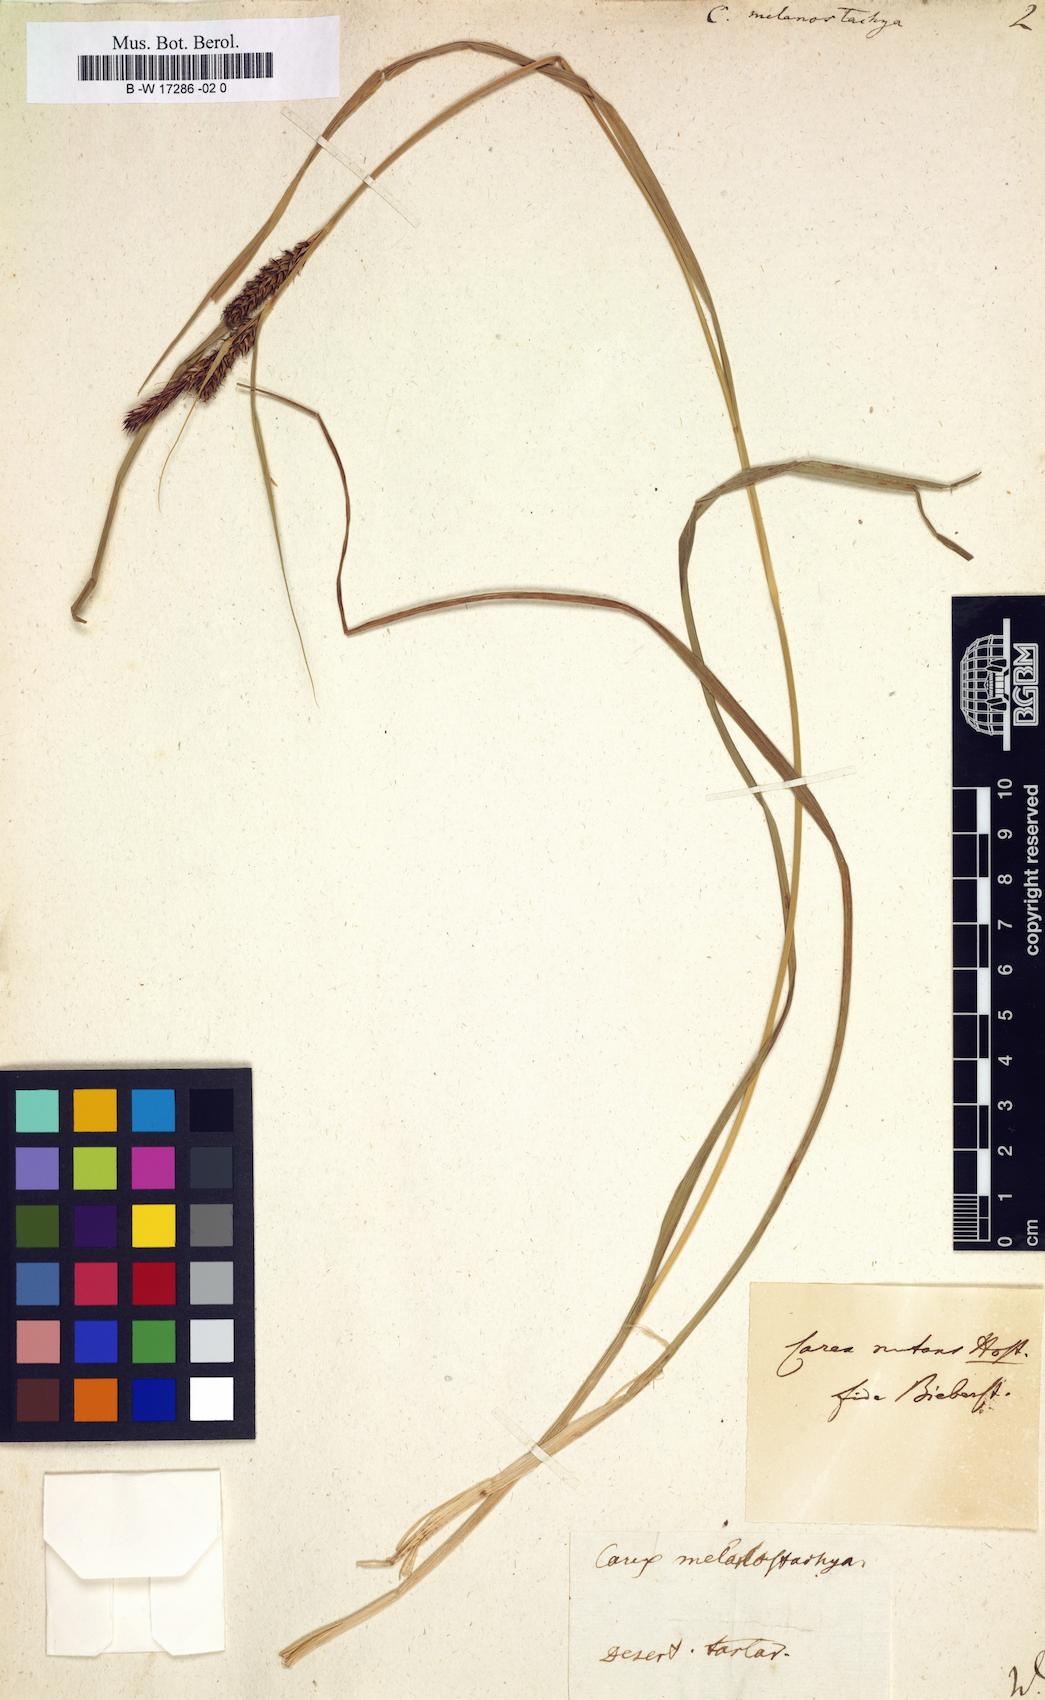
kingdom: Plantae
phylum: Tracheophyta
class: Liliopsida
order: Poales
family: Cyperaceae
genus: Carex
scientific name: Carex melanostachya
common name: Black-spiked sedge
